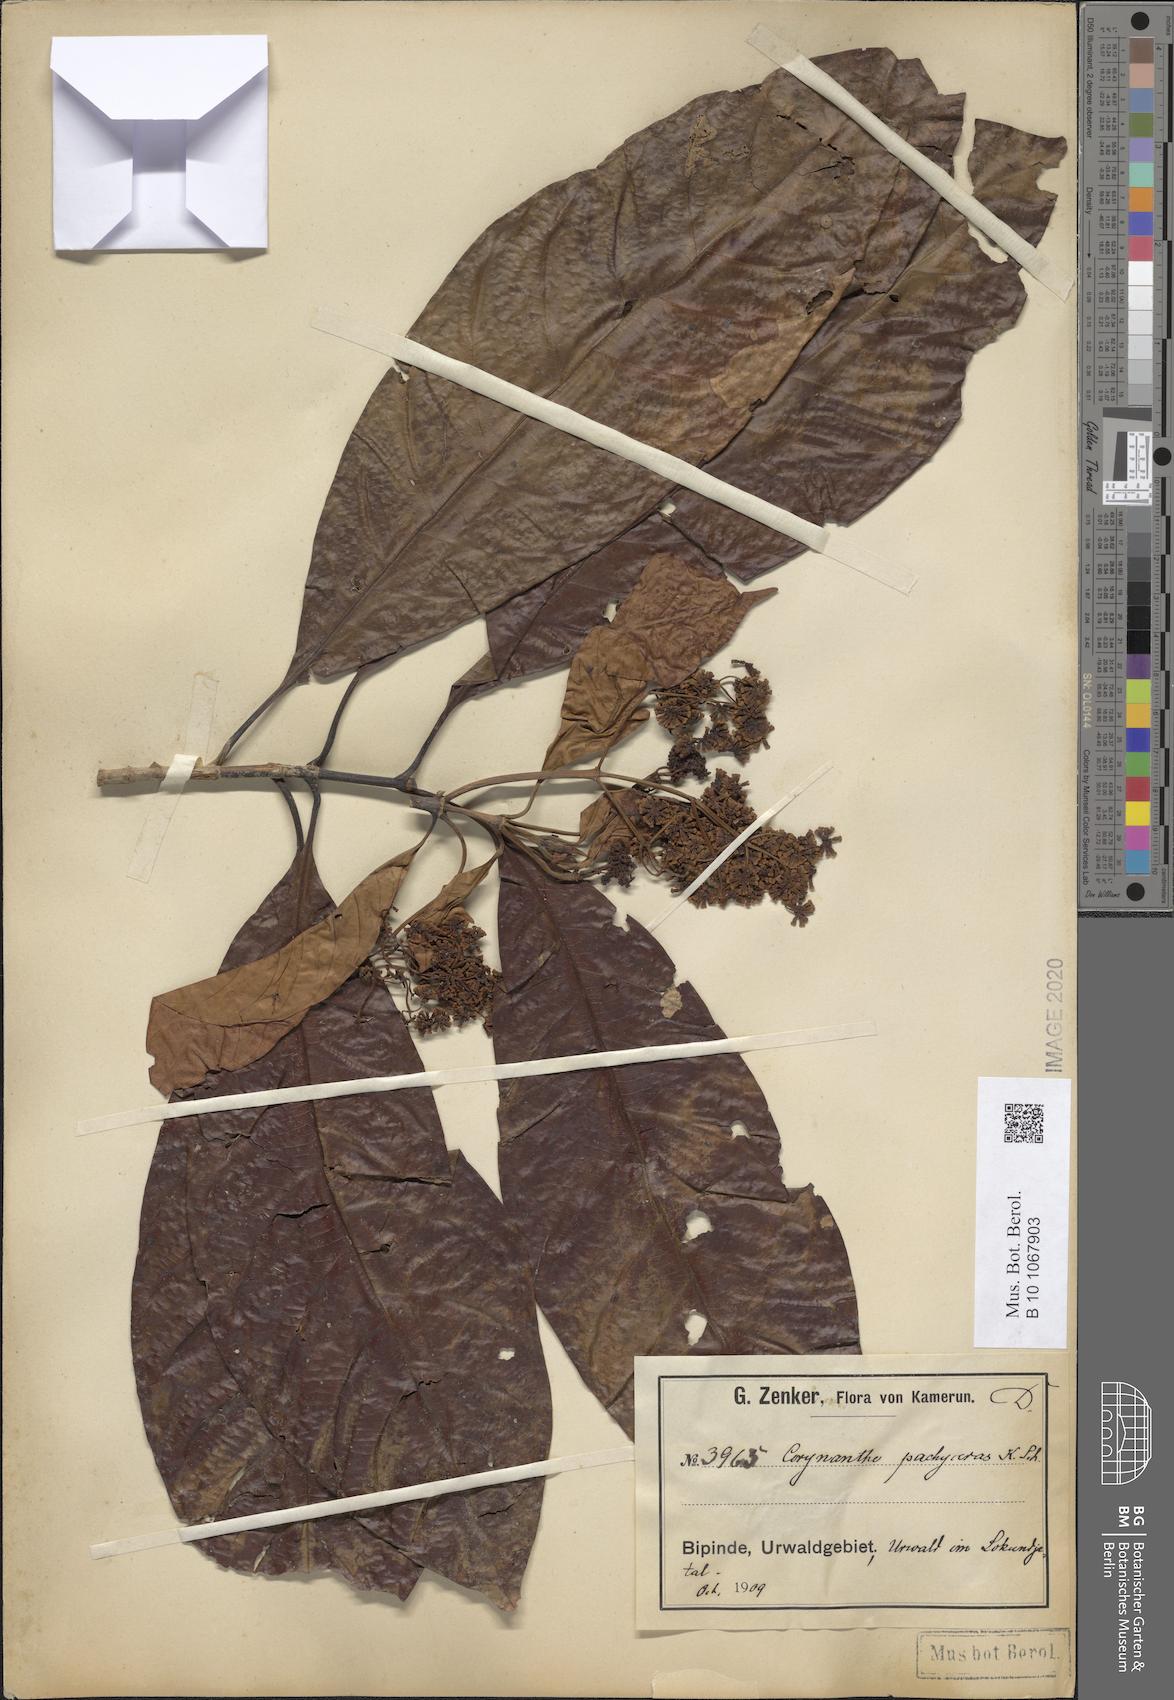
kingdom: Plantae
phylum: Tracheophyta
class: Magnoliopsida
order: Gentianales
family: Rubiaceae
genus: Corynanthe
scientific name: Corynanthe pachyceras
